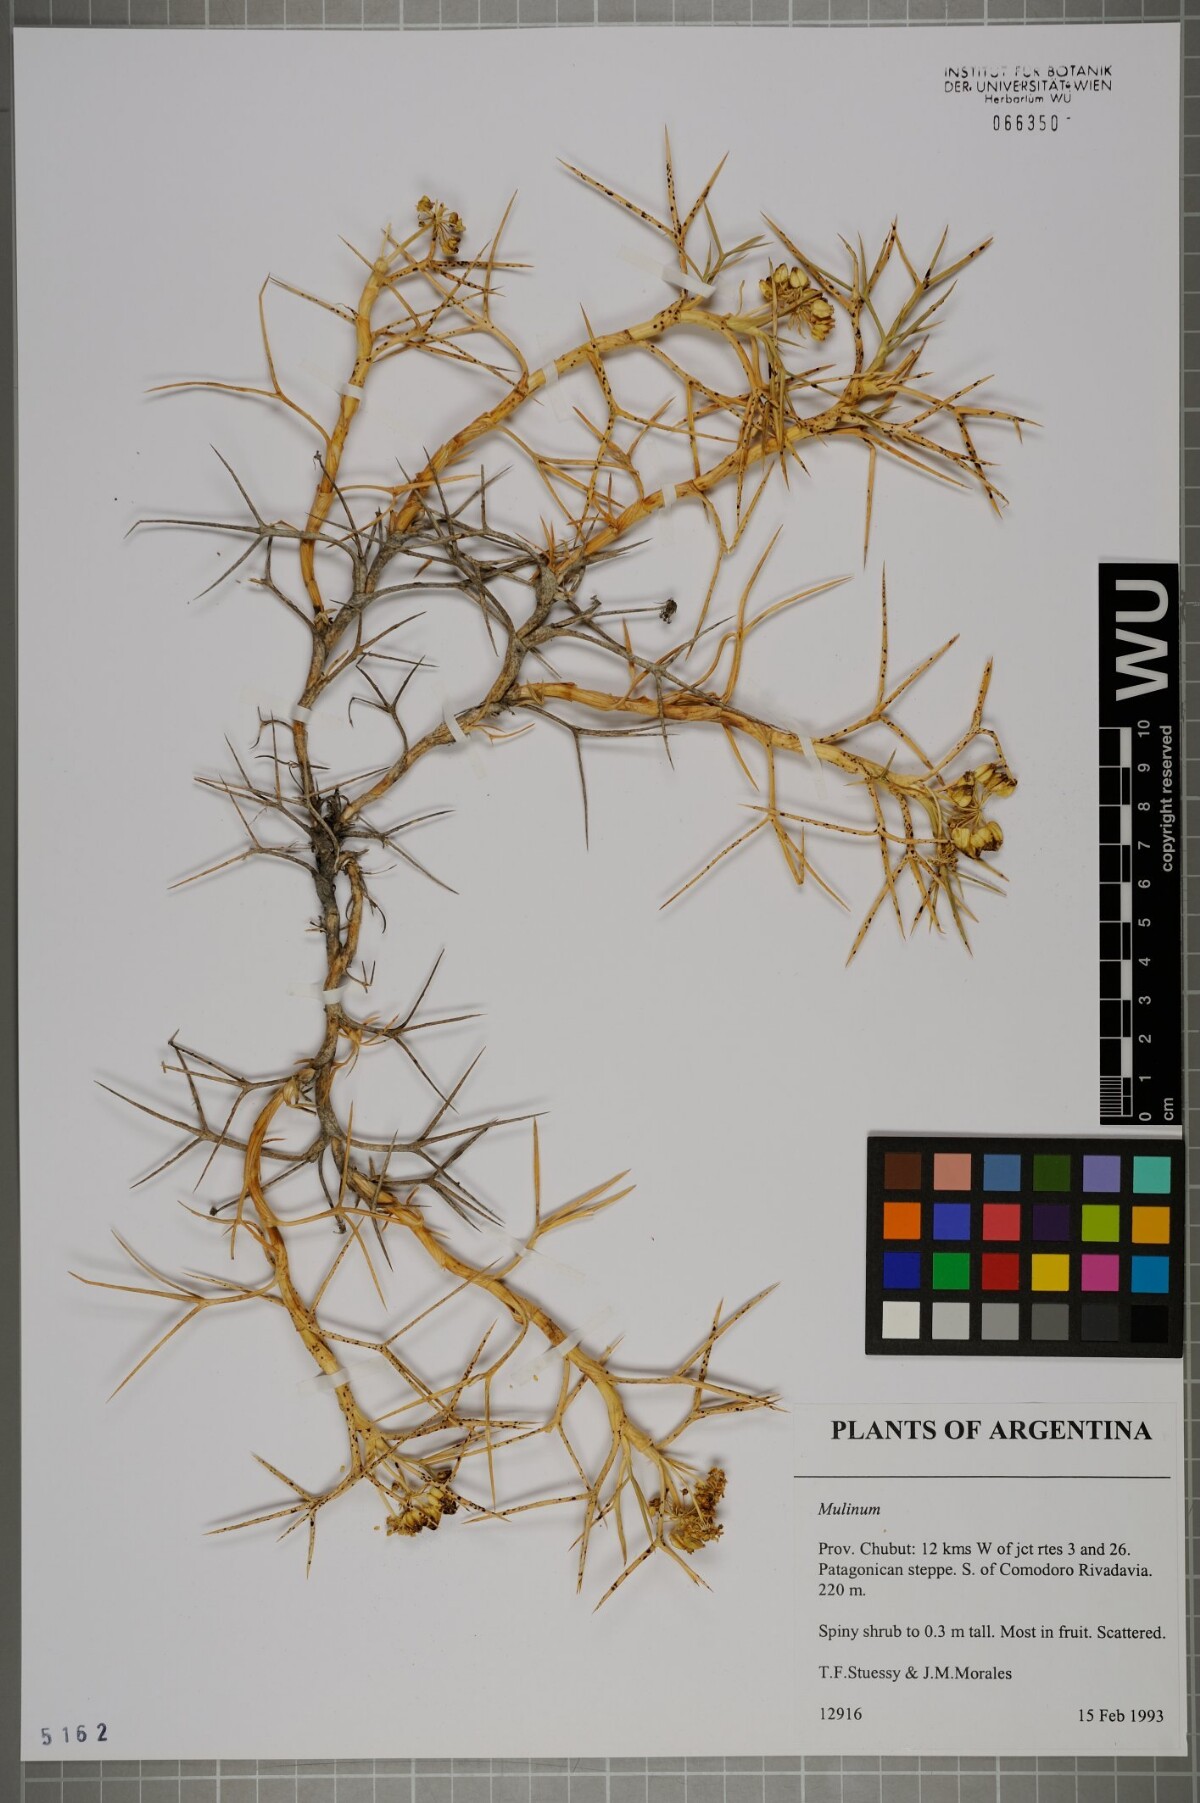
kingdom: Plantae
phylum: Tracheophyta
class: Magnoliopsida
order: Apiales
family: Apiaceae
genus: Azorella
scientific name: Azorella
